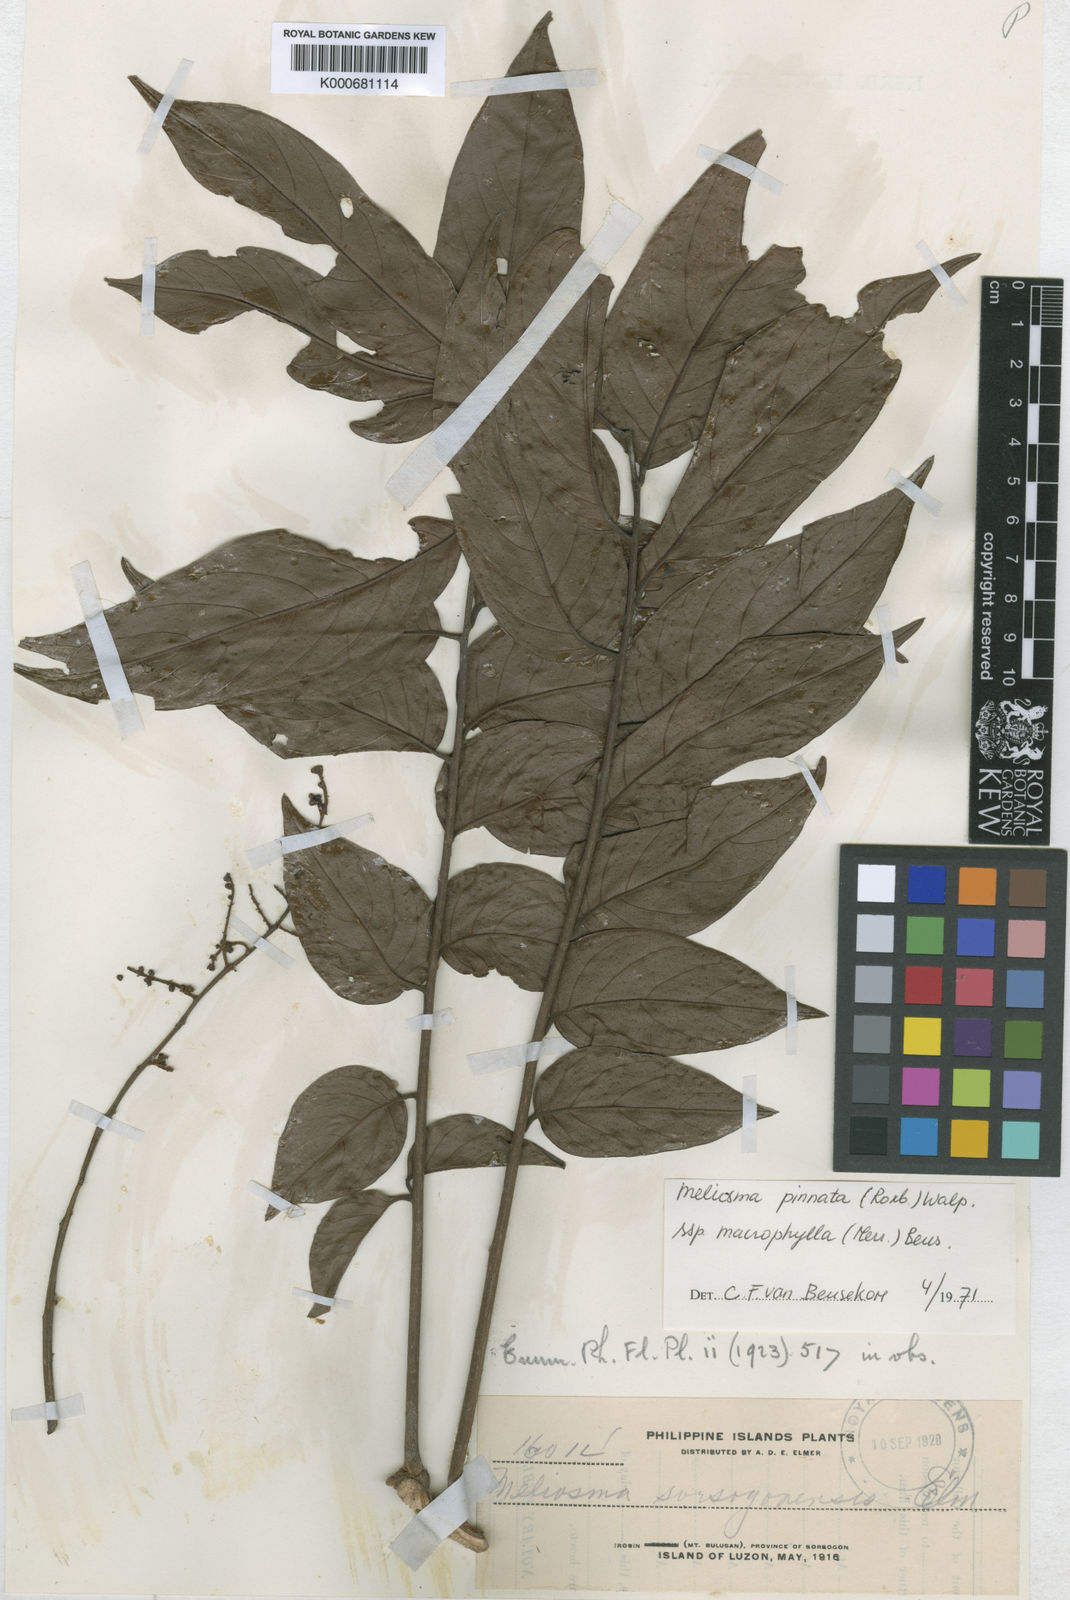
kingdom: Plantae
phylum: Tracheophyta
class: Magnoliopsida
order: Proteales
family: Sabiaceae
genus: Meliosma
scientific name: Meliosma pinnata
